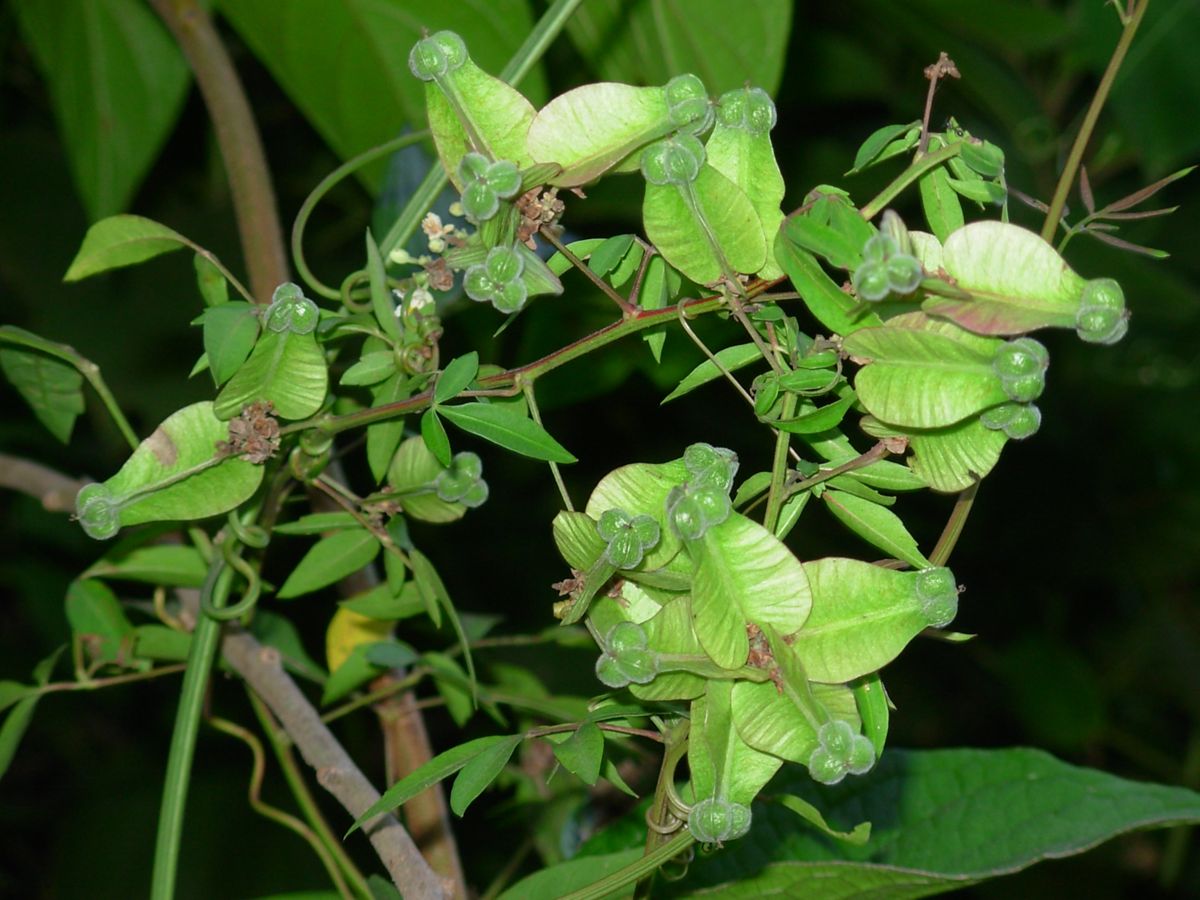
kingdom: Plantae
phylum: Tracheophyta
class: Magnoliopsida
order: Sapindales
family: Sapindaceae
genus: Serjania
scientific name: Serjania atrolineata
